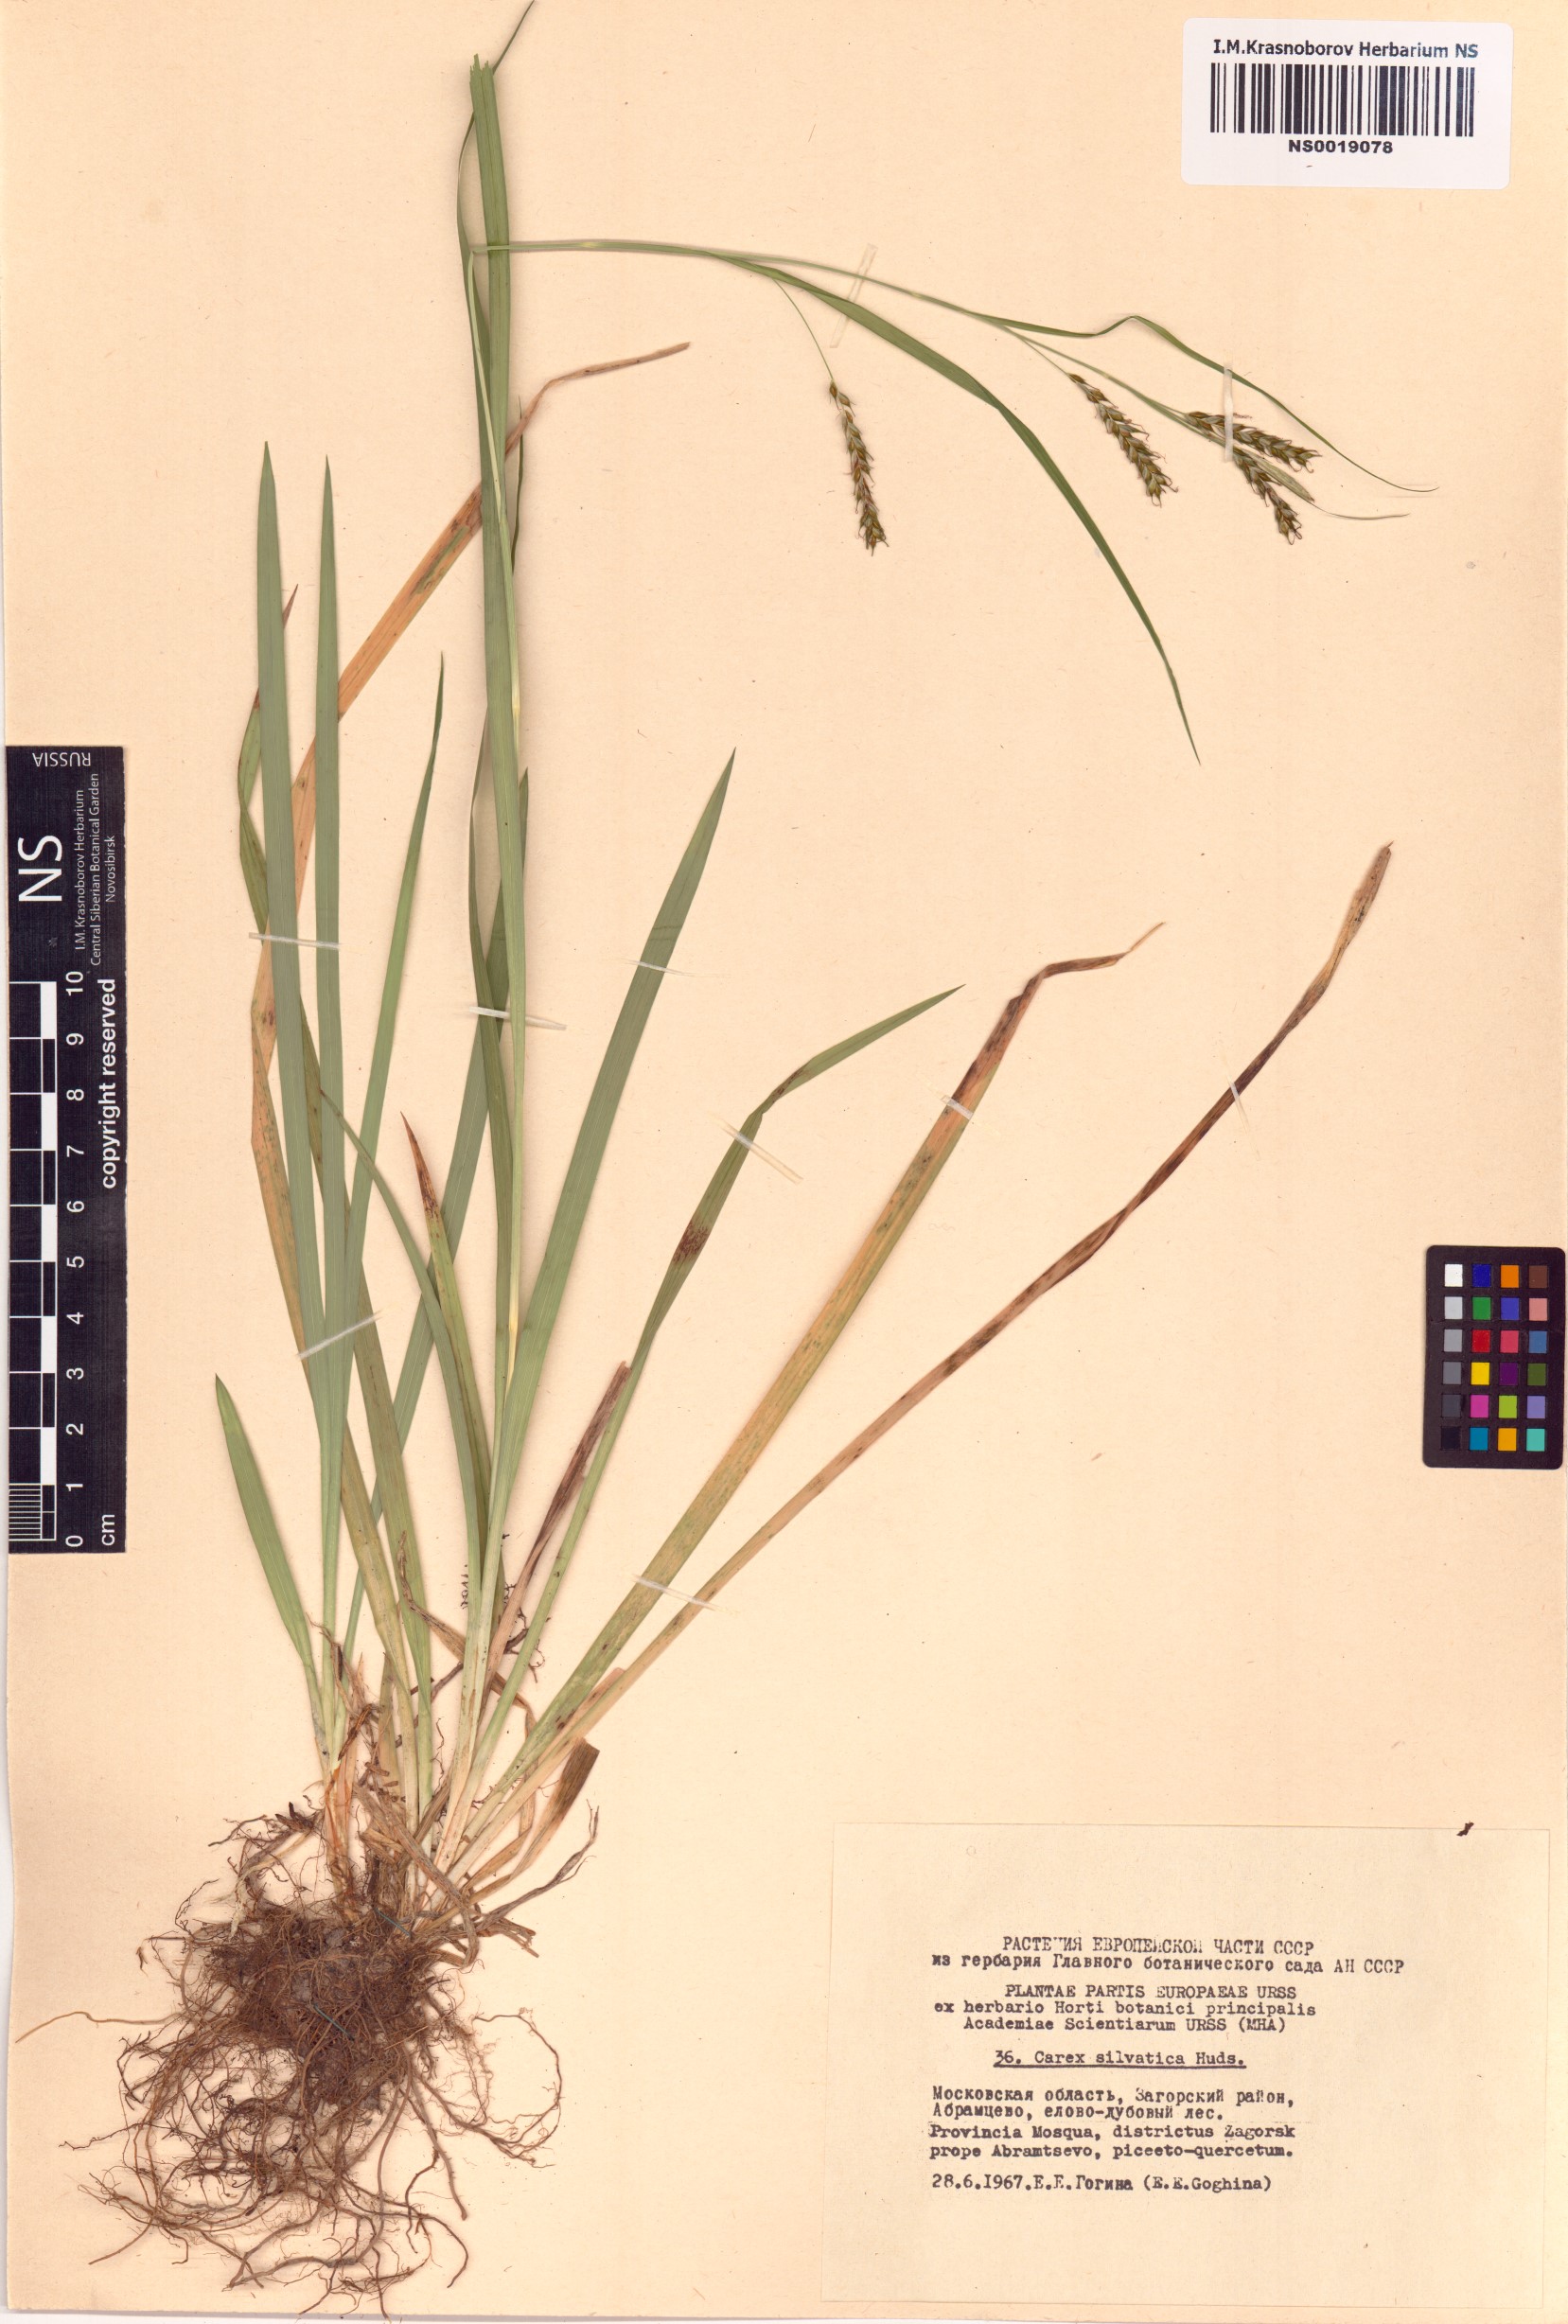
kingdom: Plantae
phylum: Tracheophyta
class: Liliopsida
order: Poales
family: Cyperaceae
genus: Carex
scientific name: Carex sylvatica
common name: Wood-sedge
